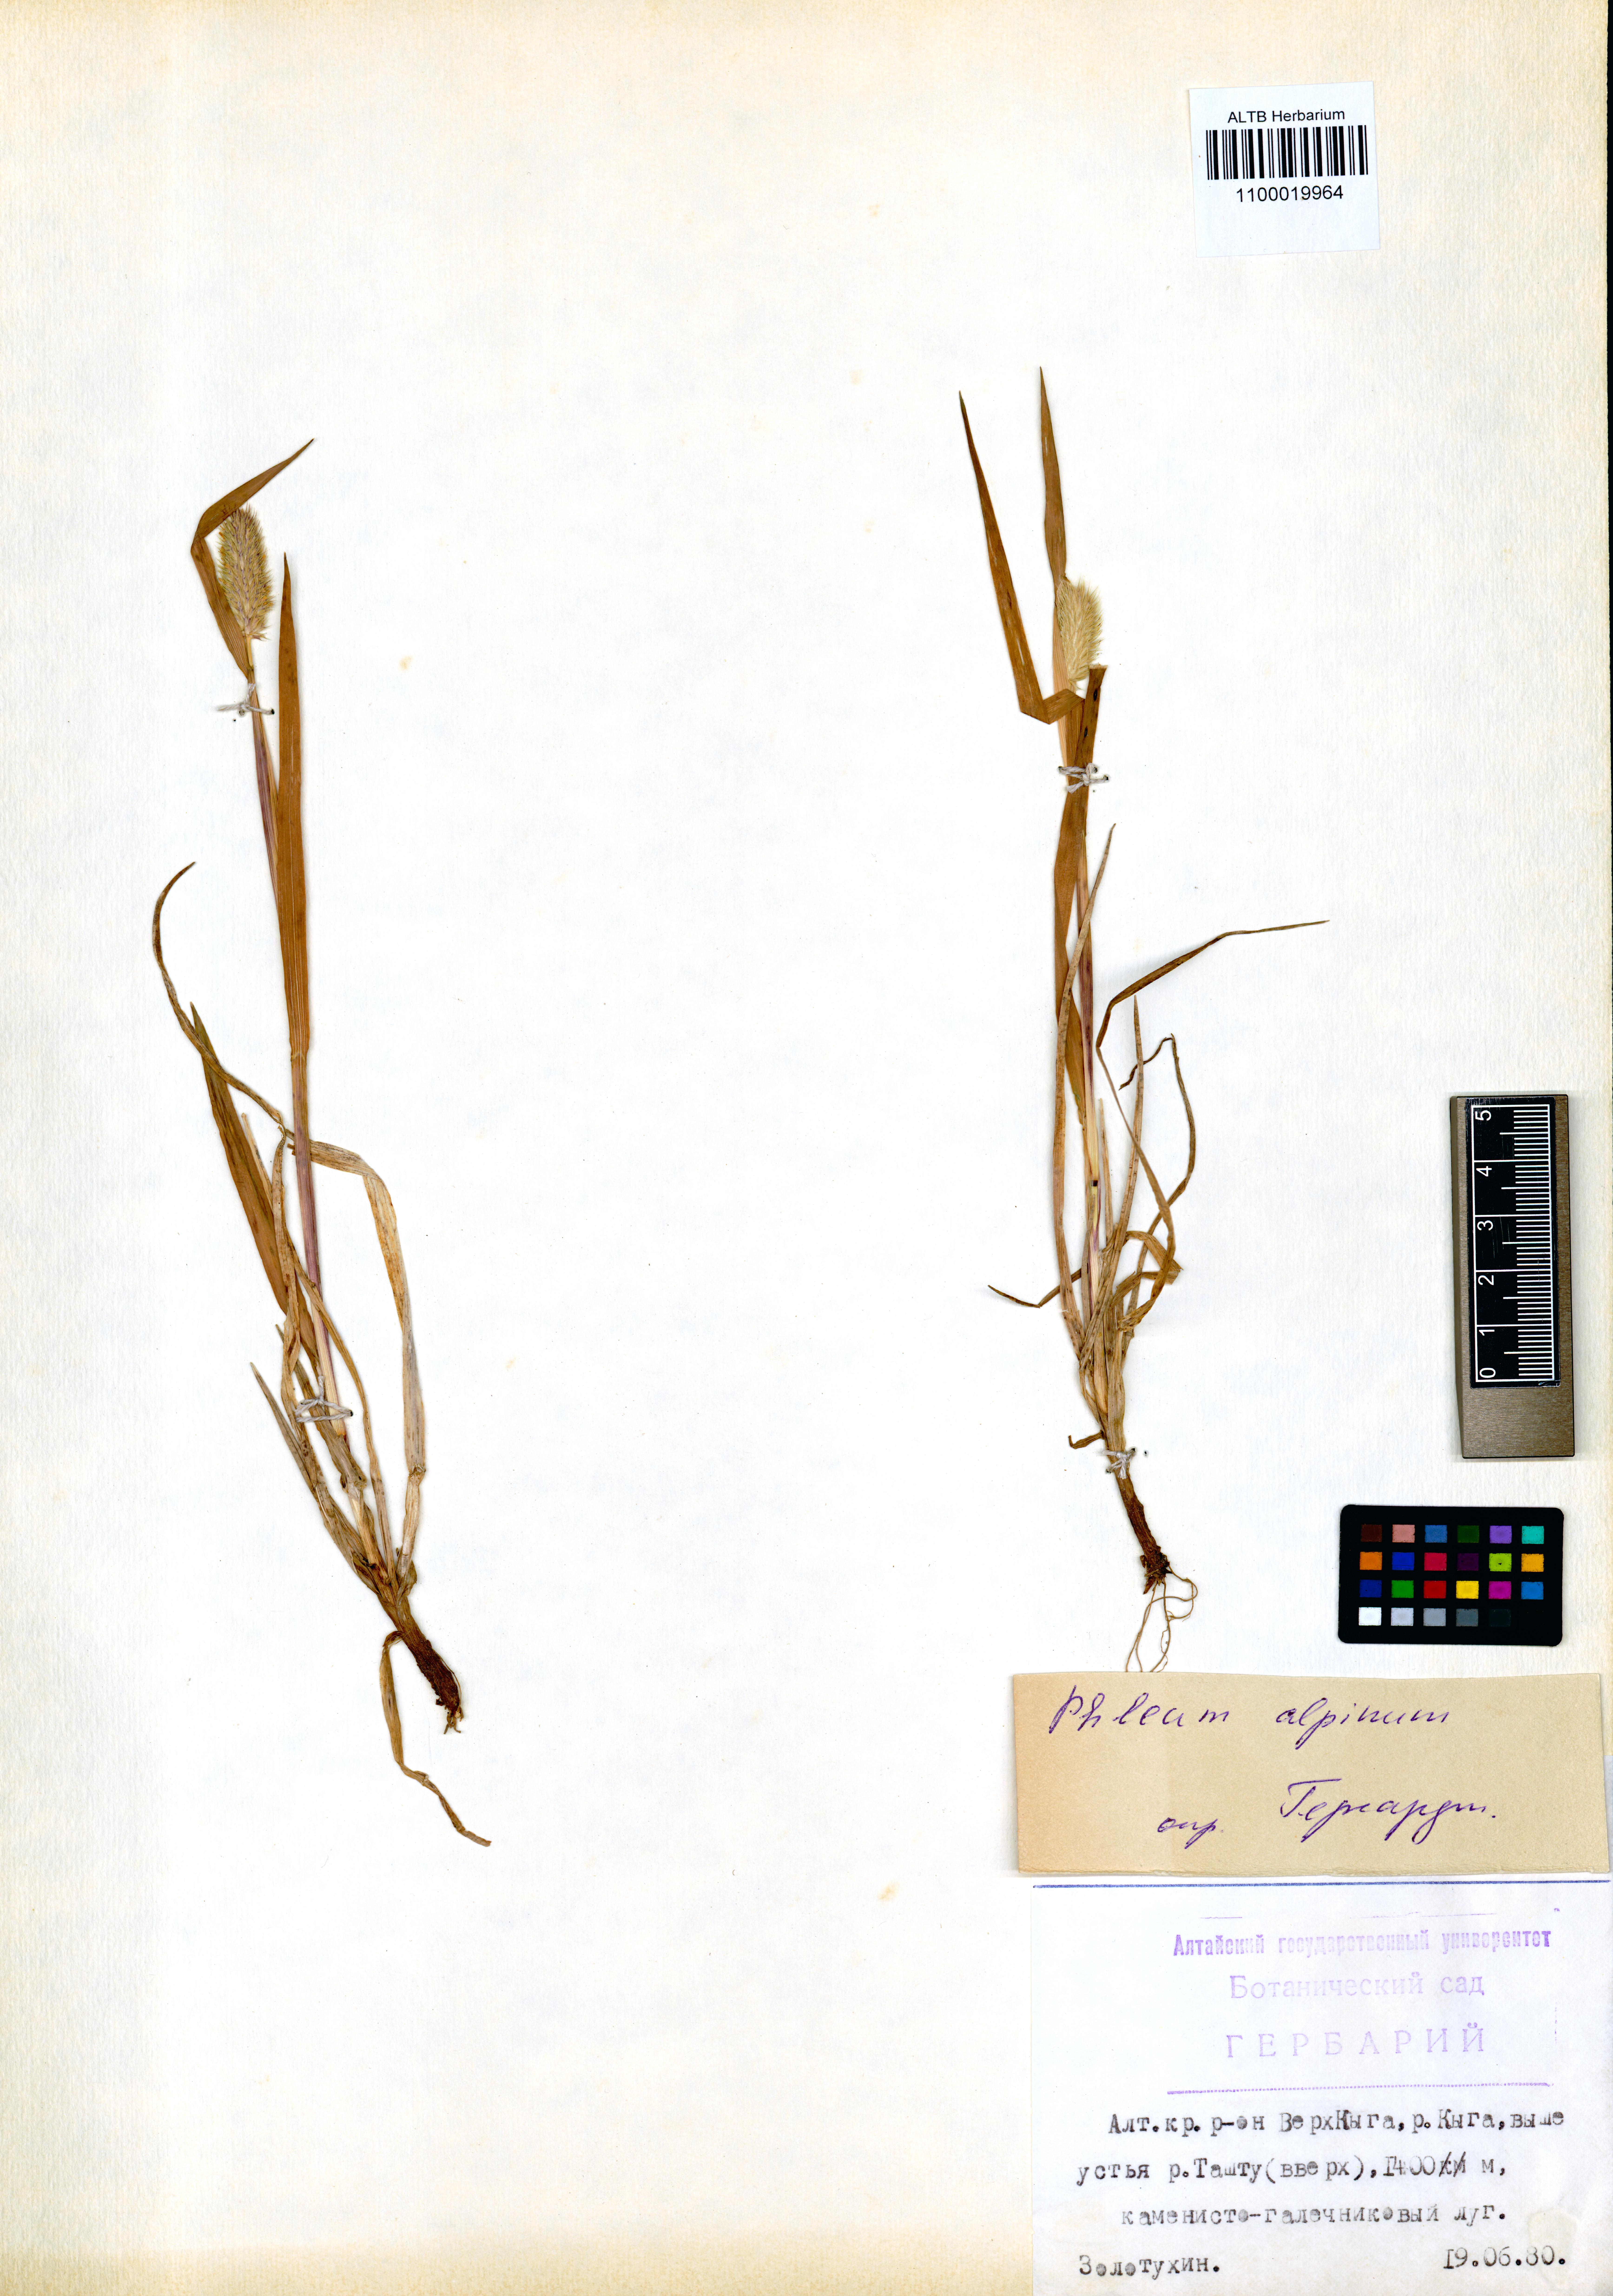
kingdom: Plantae
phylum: Tracheophyta
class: Liliopsida
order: Poales
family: Poaceae
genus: Phleum
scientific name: Phleum alpinum
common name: Alpine cat's-tail
